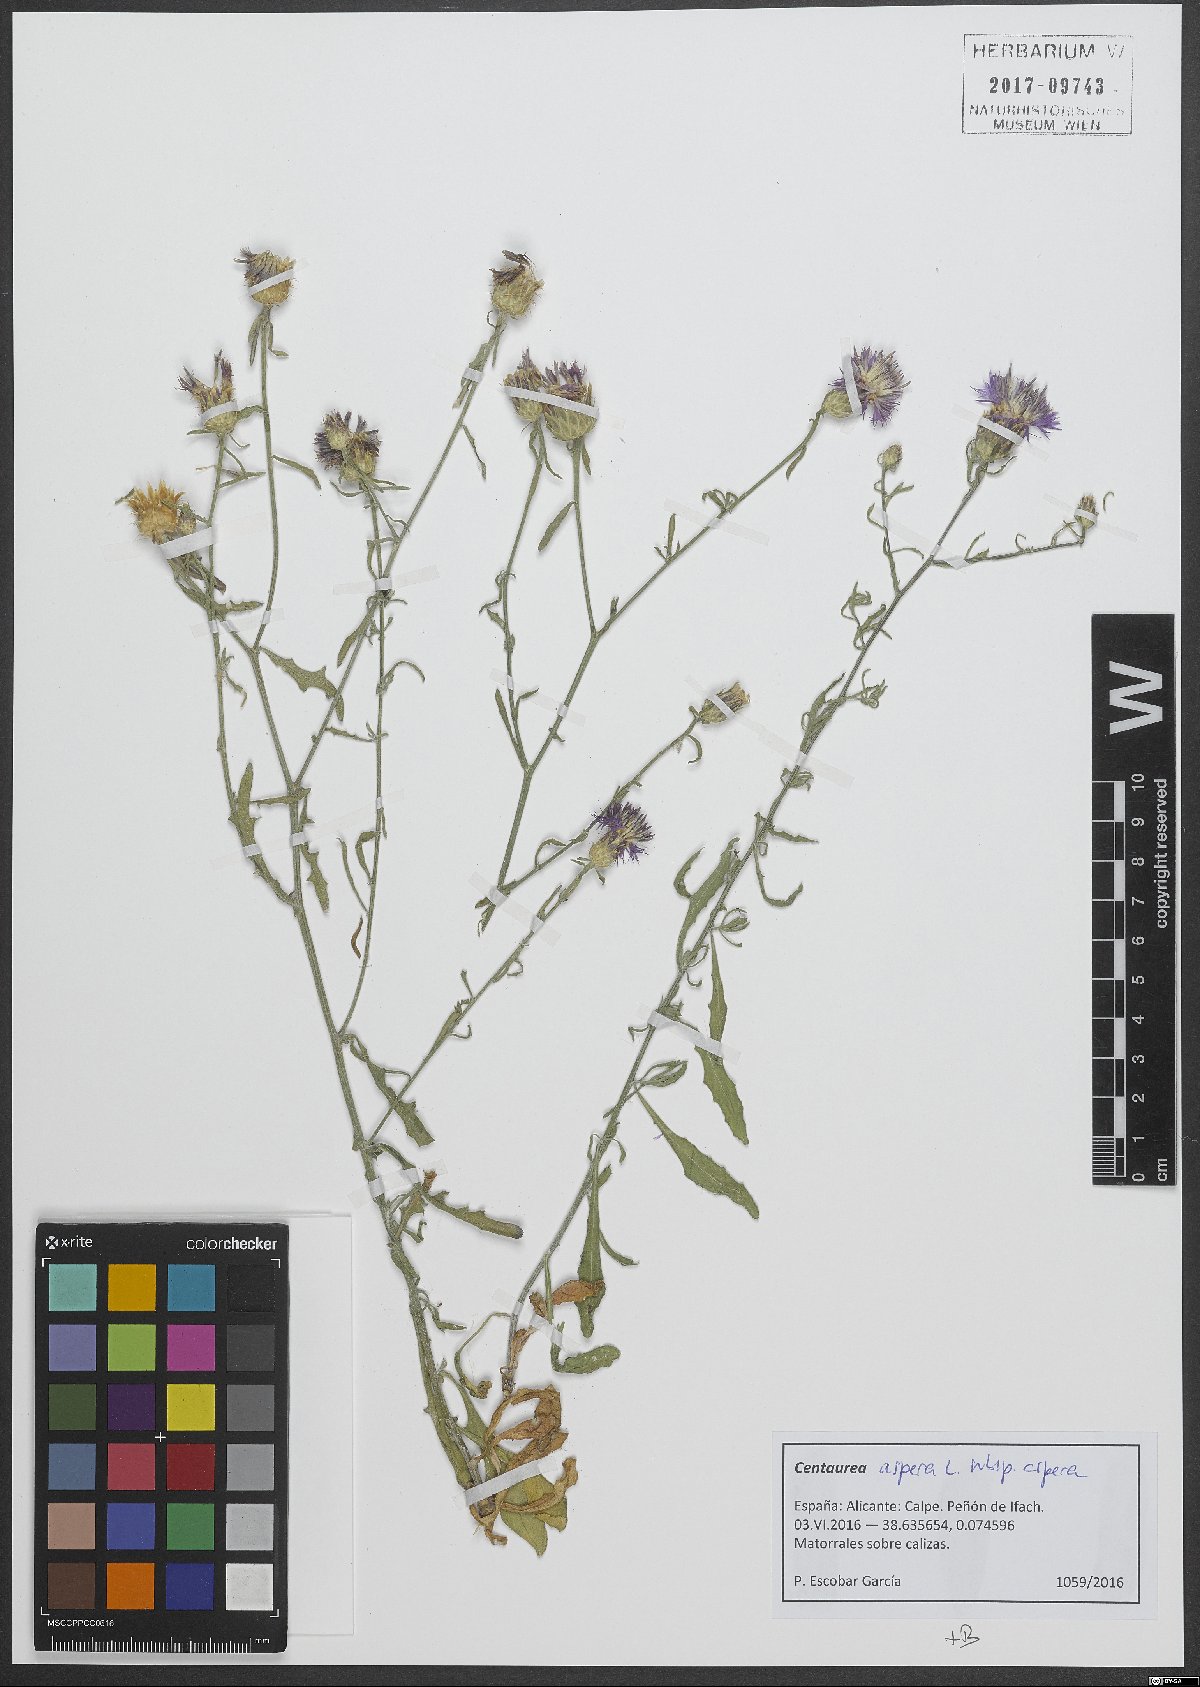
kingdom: Plantae
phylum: Tracheophyta
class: Magnoliopsida
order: Asterales
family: Asteraceae
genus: Centaurea
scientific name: Centaurea aspera
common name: Rough star-thistle
